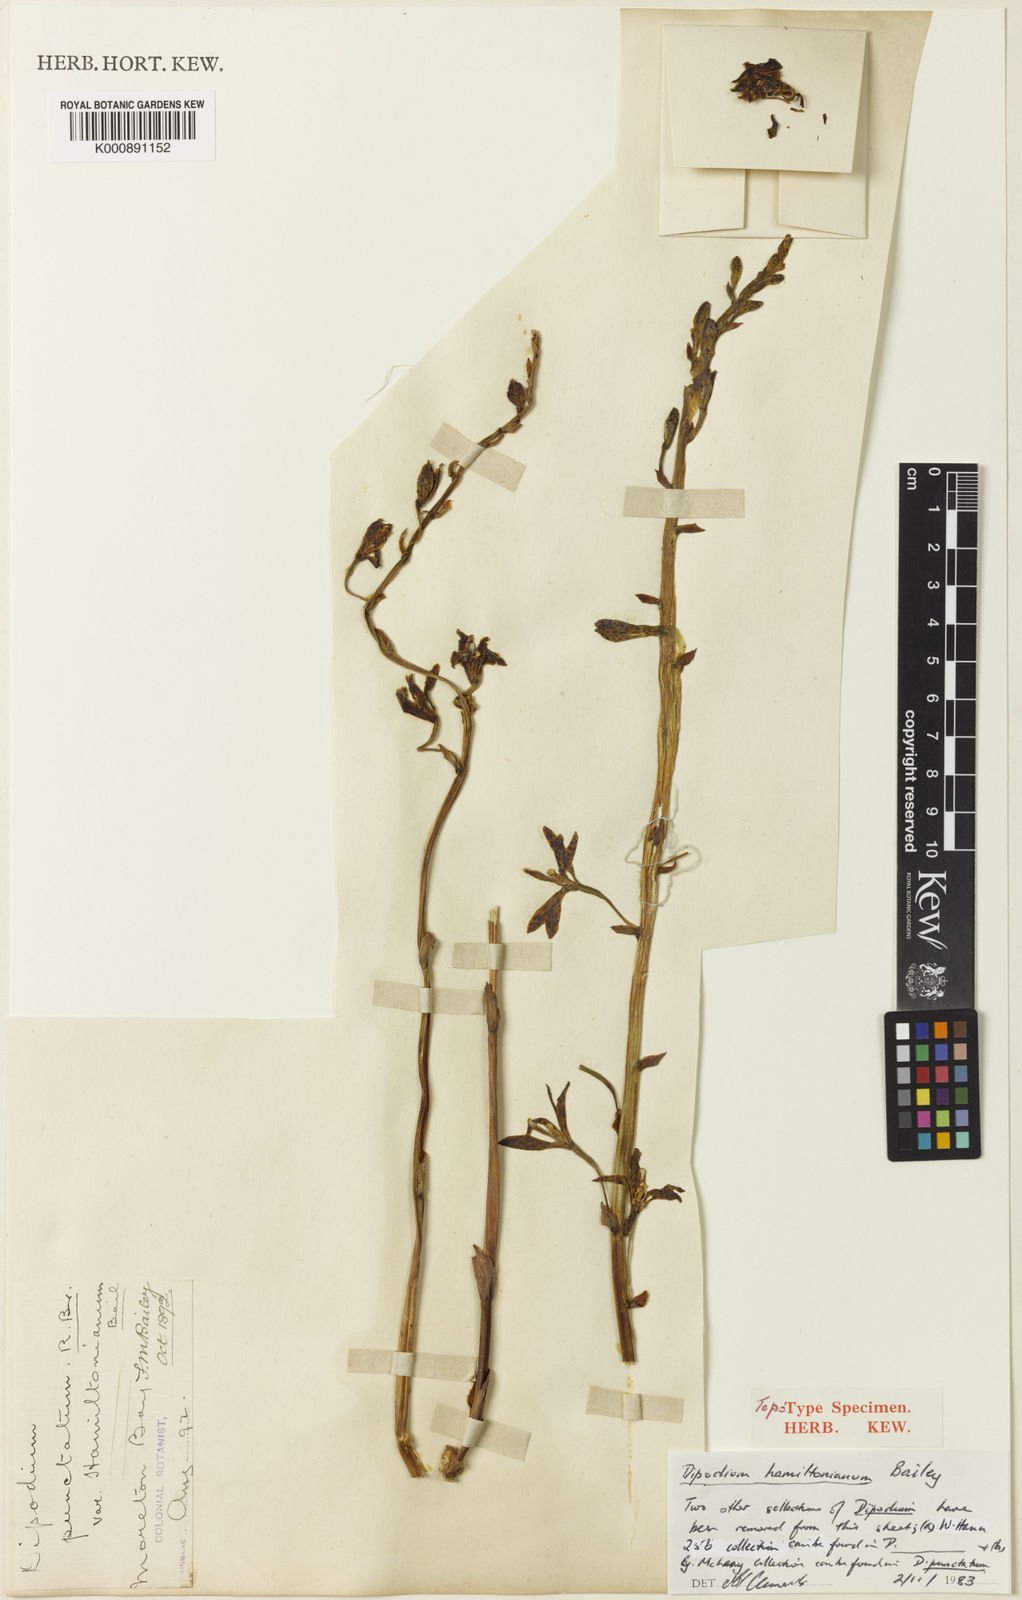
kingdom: Plantae
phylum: Tracheophyta
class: Liliopsida
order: Asparagales
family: Orchidaceae
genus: Dipodium
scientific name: Dipodium hamiltonianum
